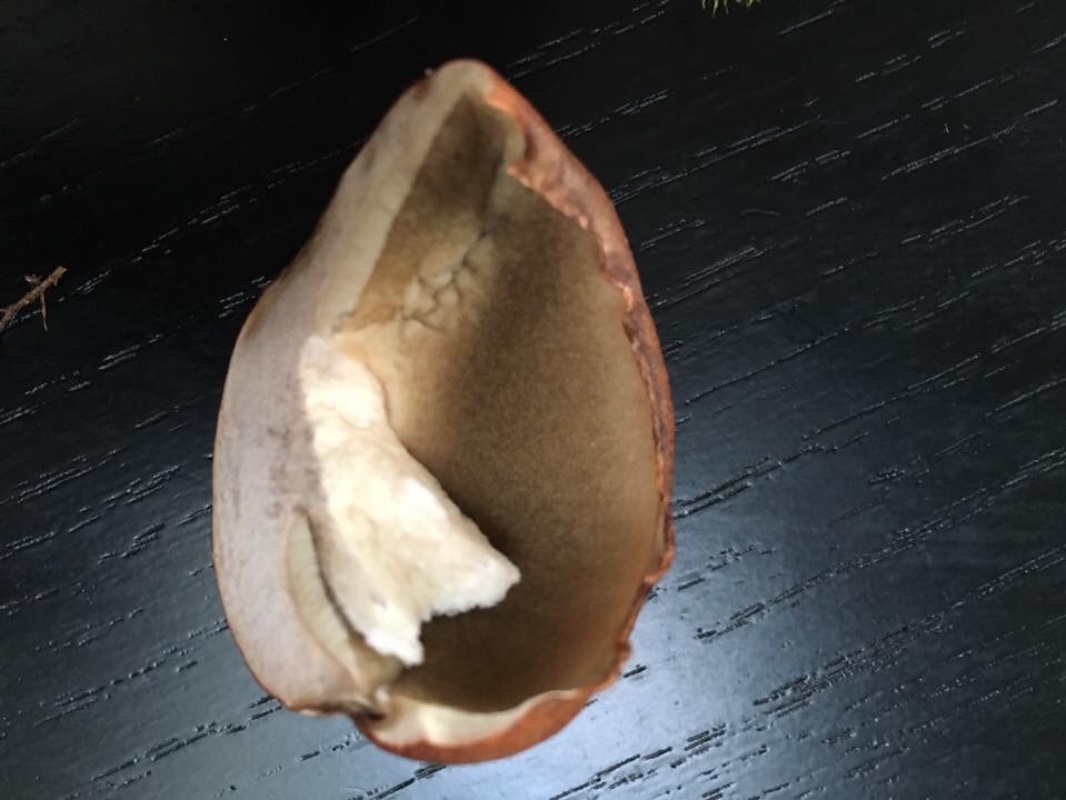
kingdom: Fungi
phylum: Basidiomycota
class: Agaricomycetes
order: Boletales
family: Boletaceae
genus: Leccinum
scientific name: Leccinum vulpinum
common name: fyrre-skælrørhat
